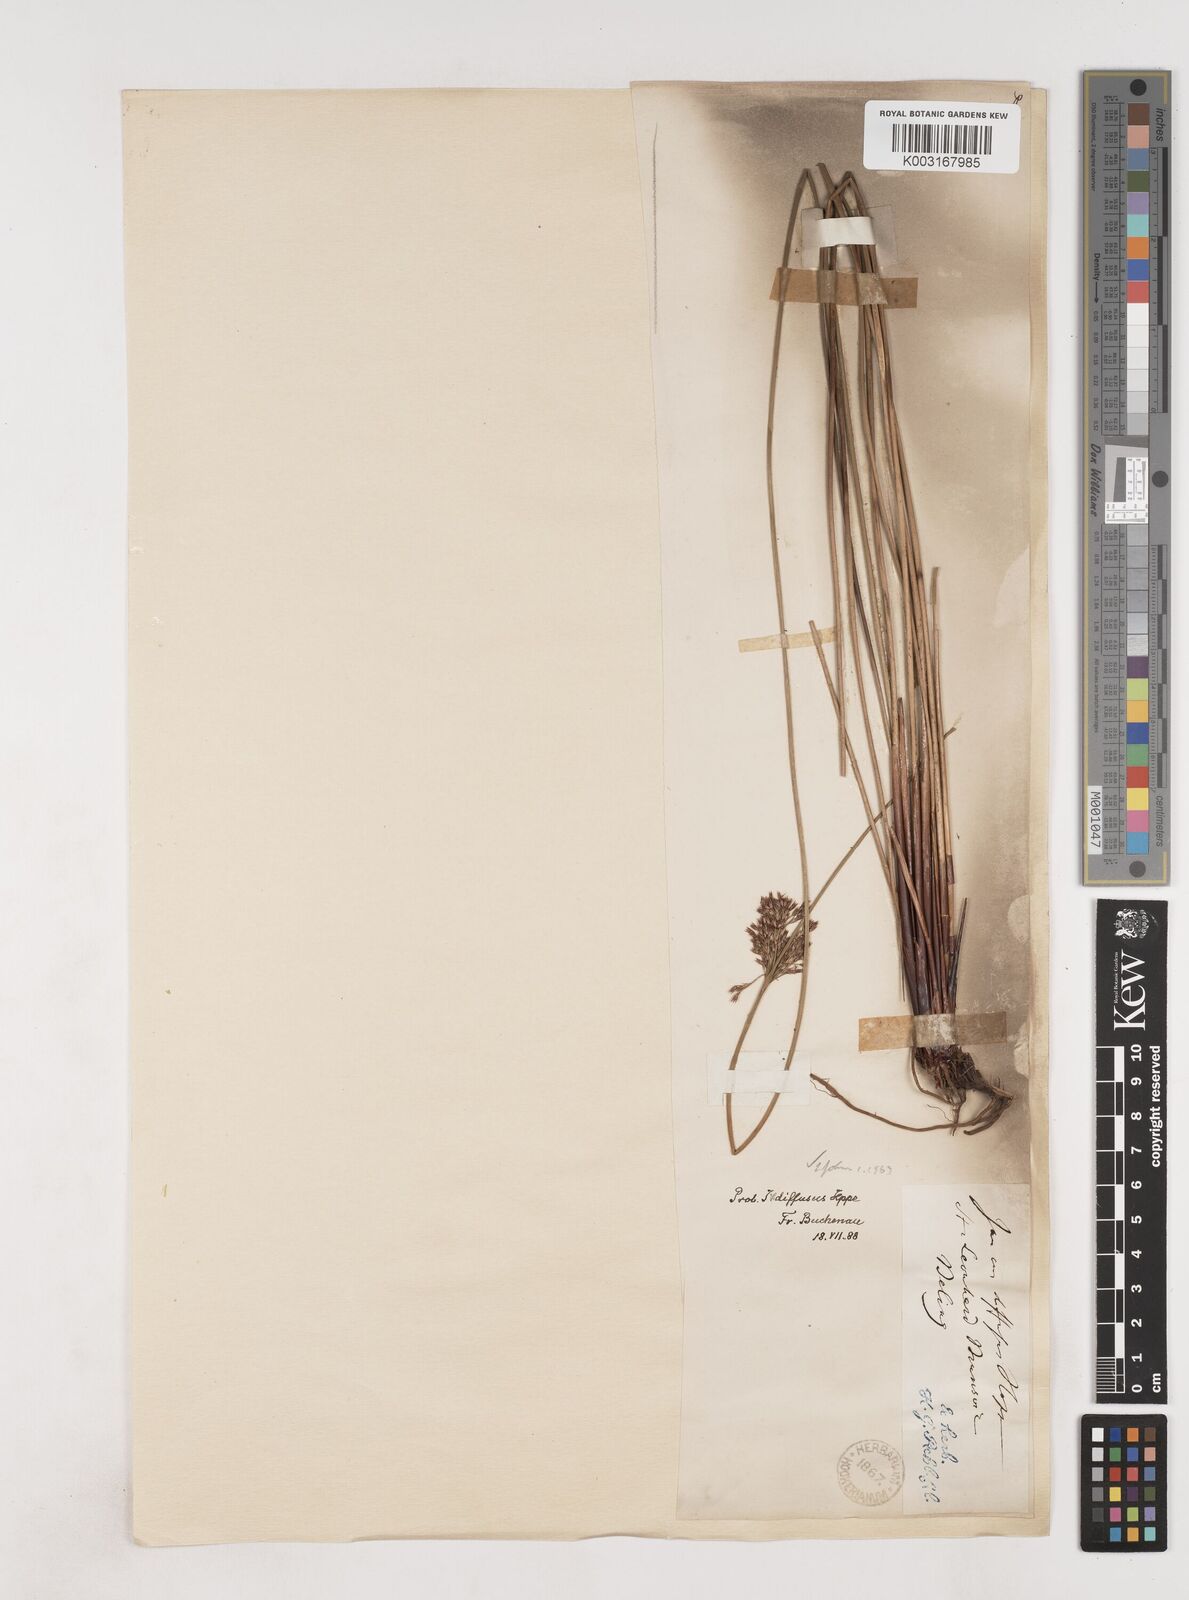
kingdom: Plantae
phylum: Tracheophyta
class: Liliopsida
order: Poales
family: Juncaceae
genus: Juncus
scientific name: Juncus effusus
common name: Soft rush
